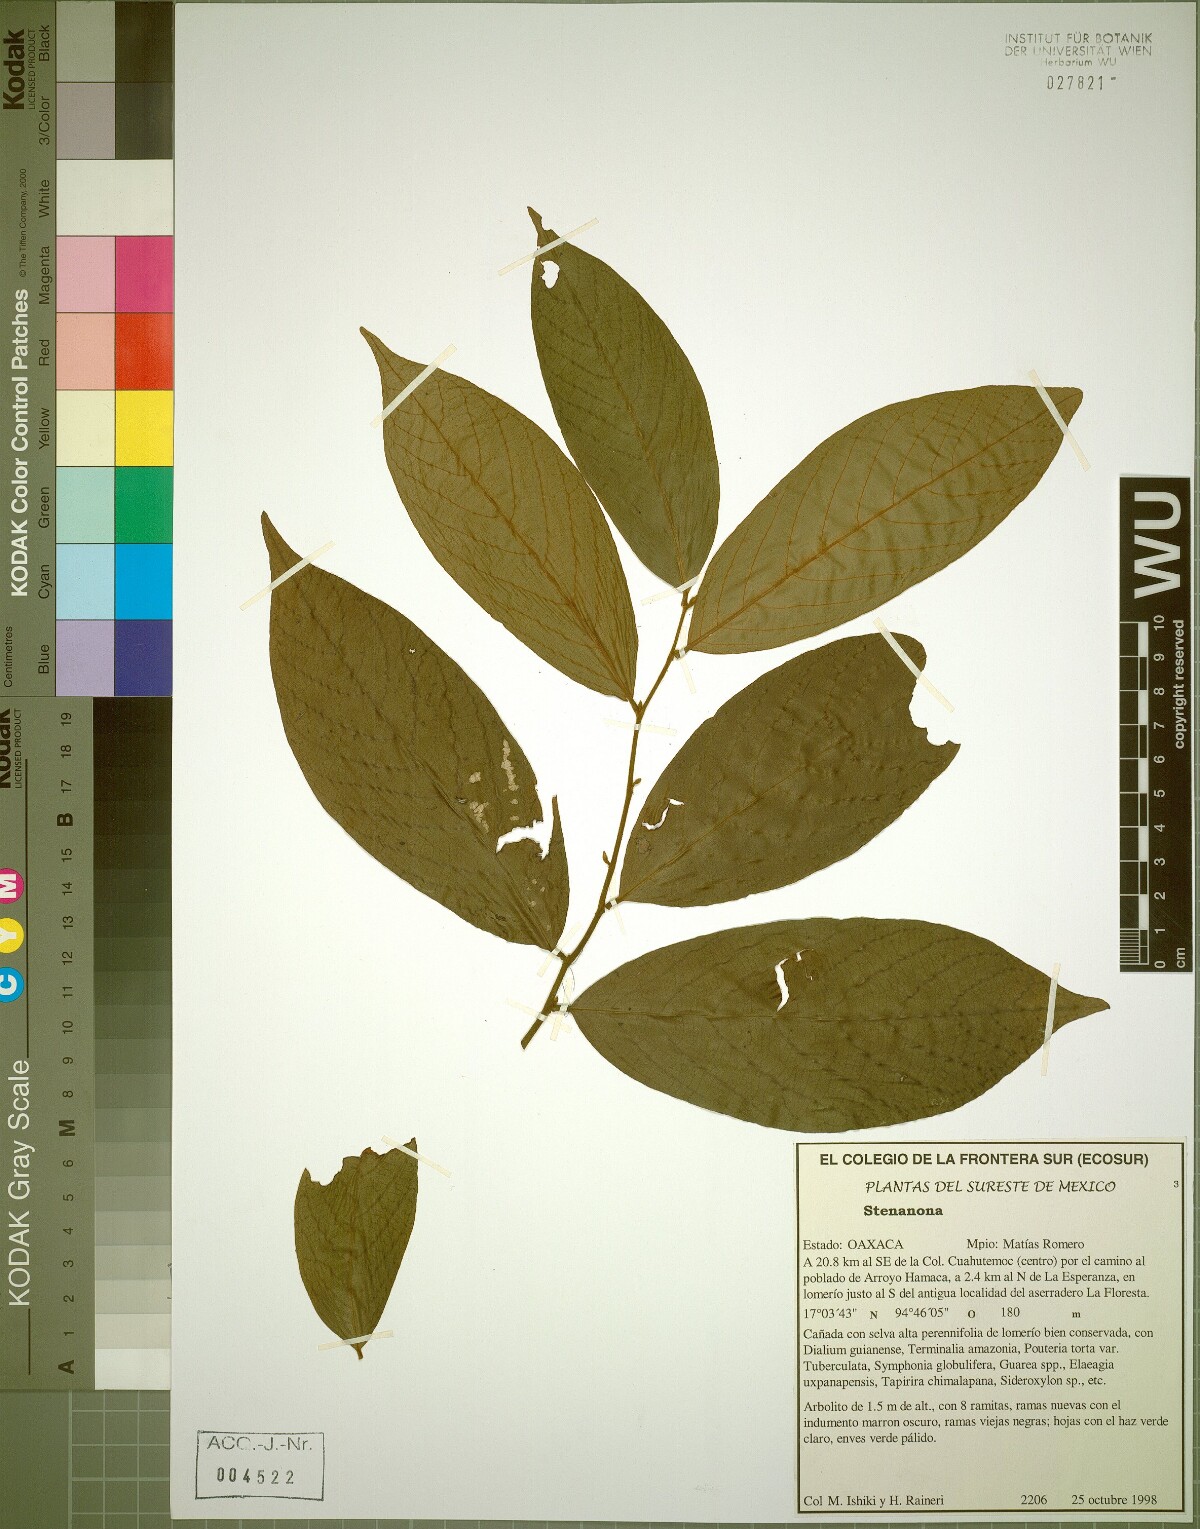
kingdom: Plantae
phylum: Tracheophyta
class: Magnoliopsida
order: Magnoliales
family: Annonaceae
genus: Stenanona
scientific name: Stenanona
